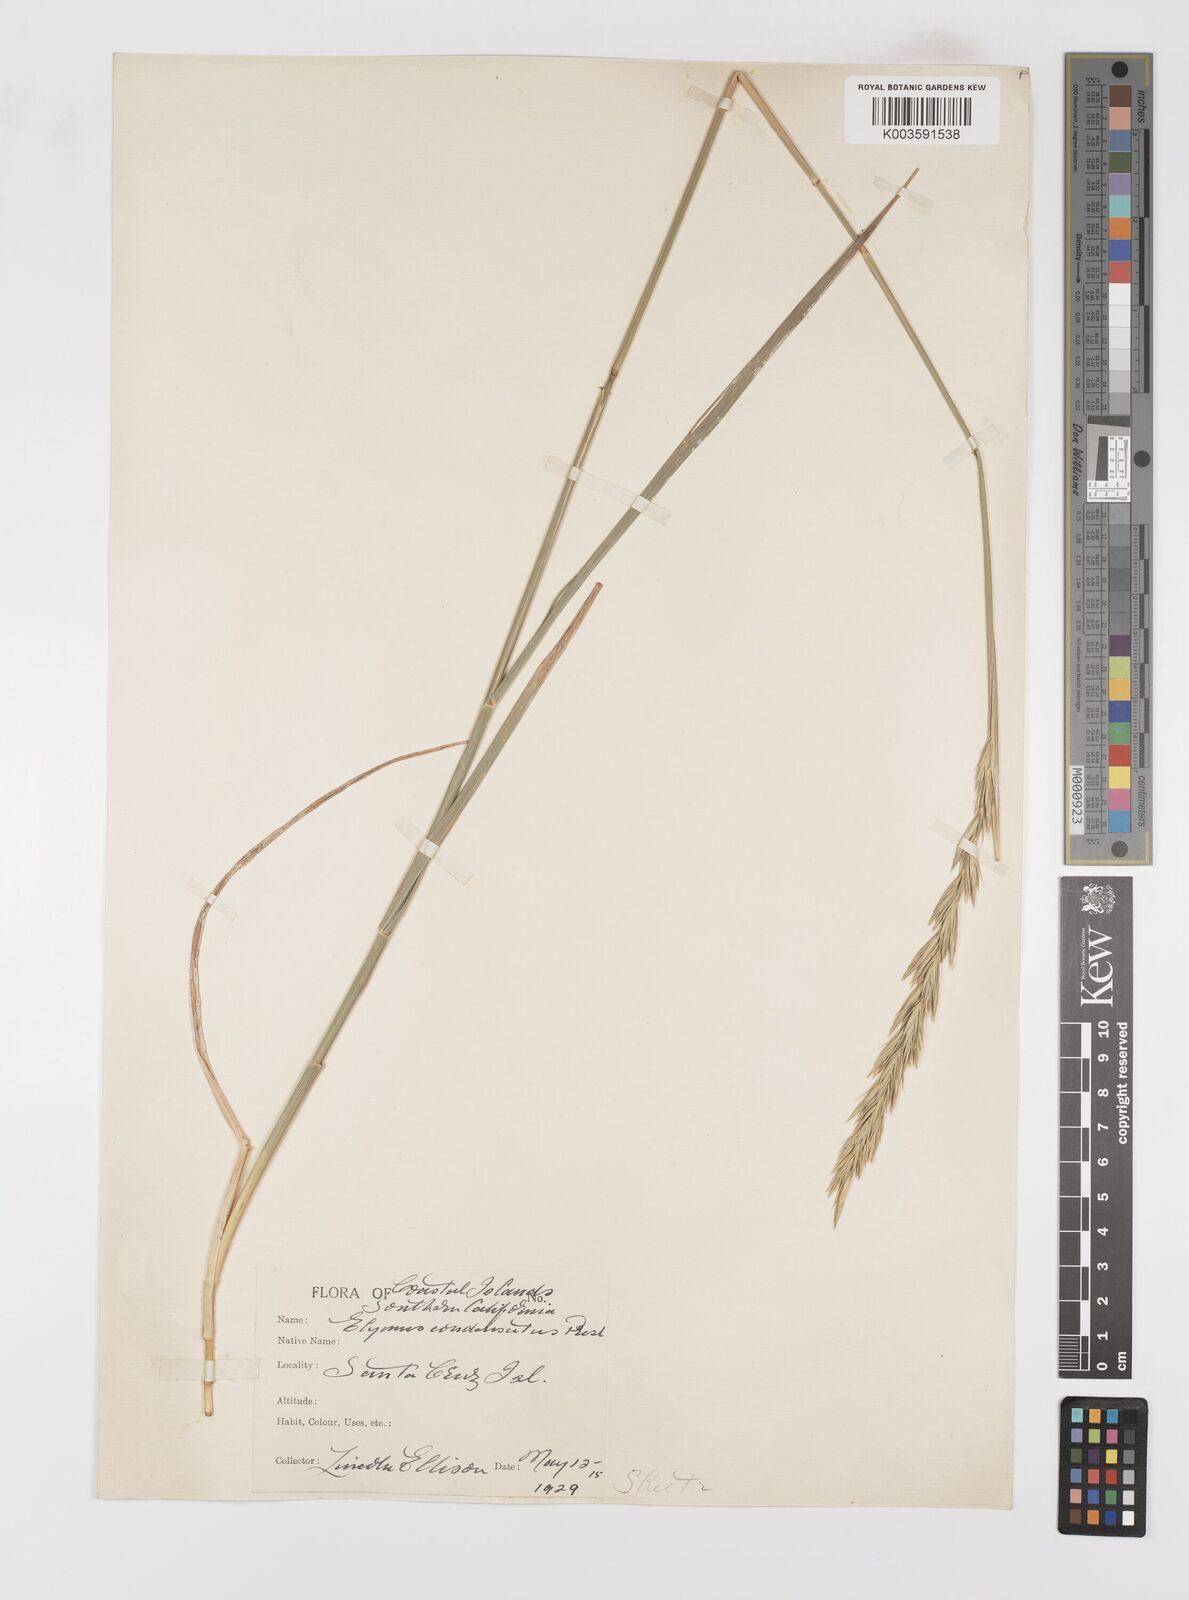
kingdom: Plantae
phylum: Tracheophyta
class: Liliopsida
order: Poales
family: Poaceae
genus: Leymus
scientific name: Leymus condensatus
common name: Giant wild rye
